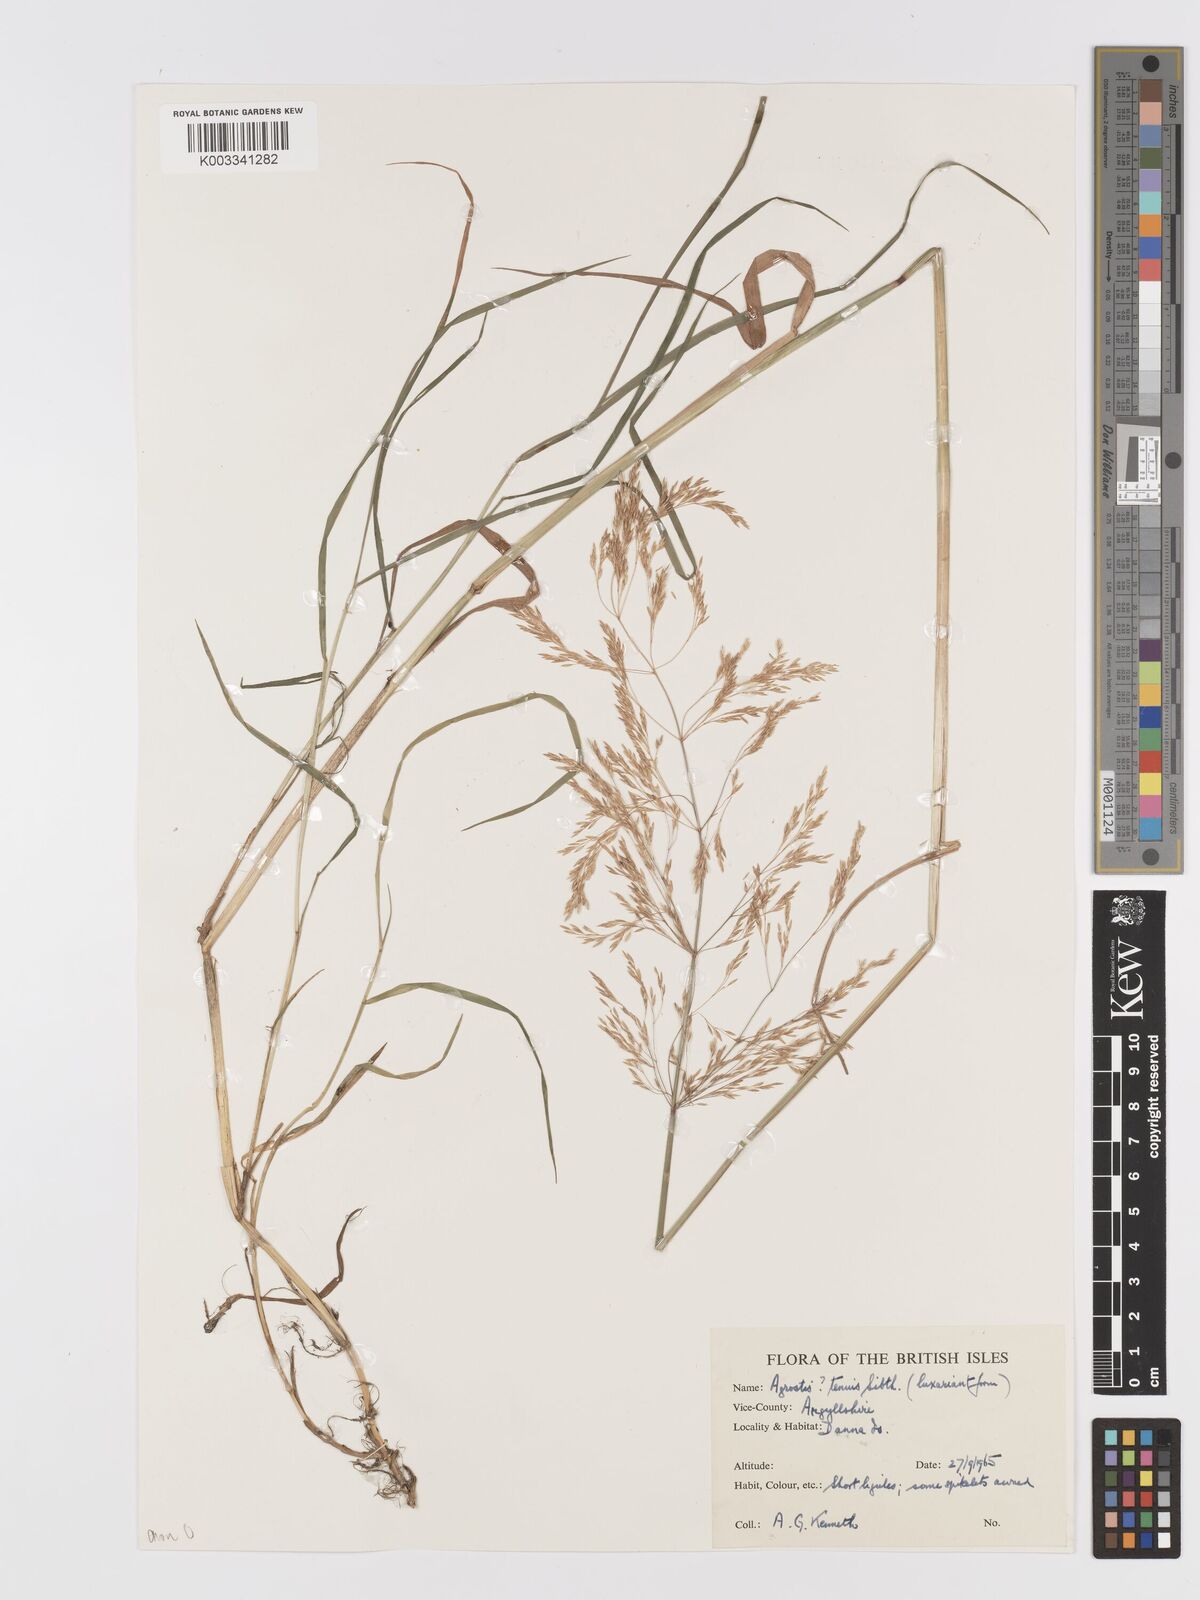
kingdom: Plantae
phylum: Tracheophyta
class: Liliopsida
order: Poales
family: Poaceae
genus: Agrostis
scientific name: Agrostis gigantea
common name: Black bent
